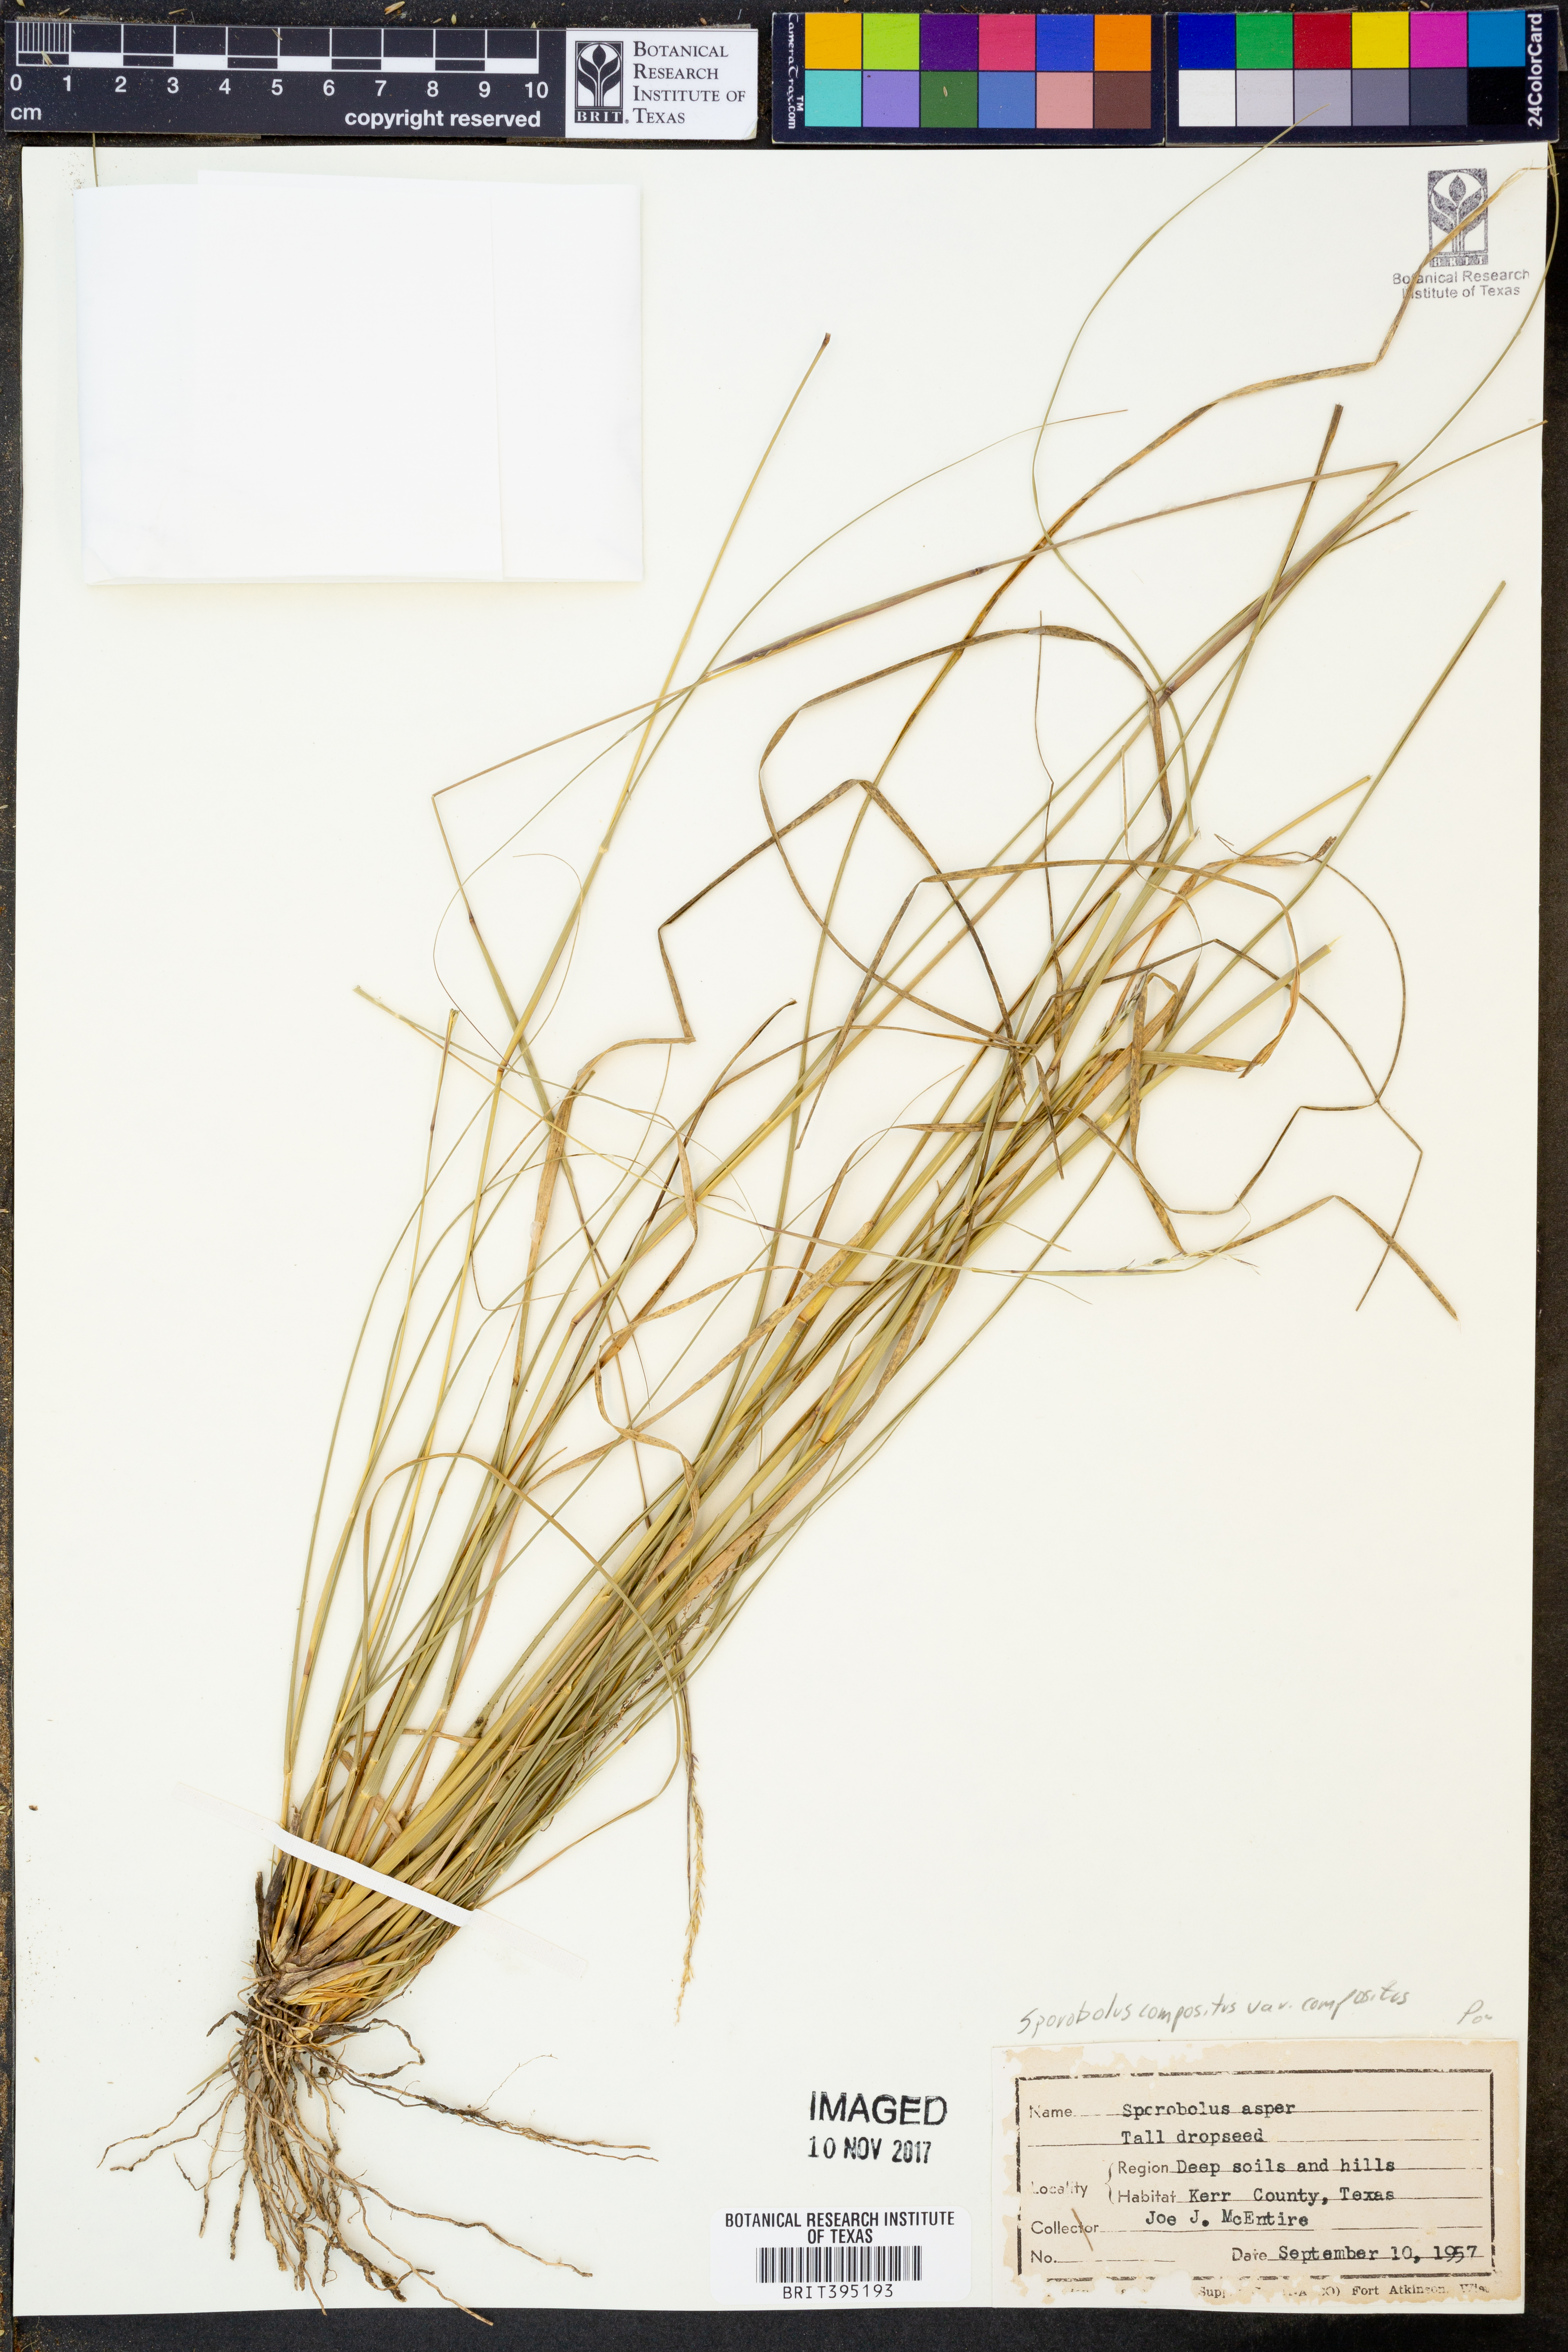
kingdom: Plantae
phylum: Tracheophyta
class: Liliopsida
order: Poales
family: Poaceae
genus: Sporobolus
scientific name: Sporobolus compositus
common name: Rough dropseed
